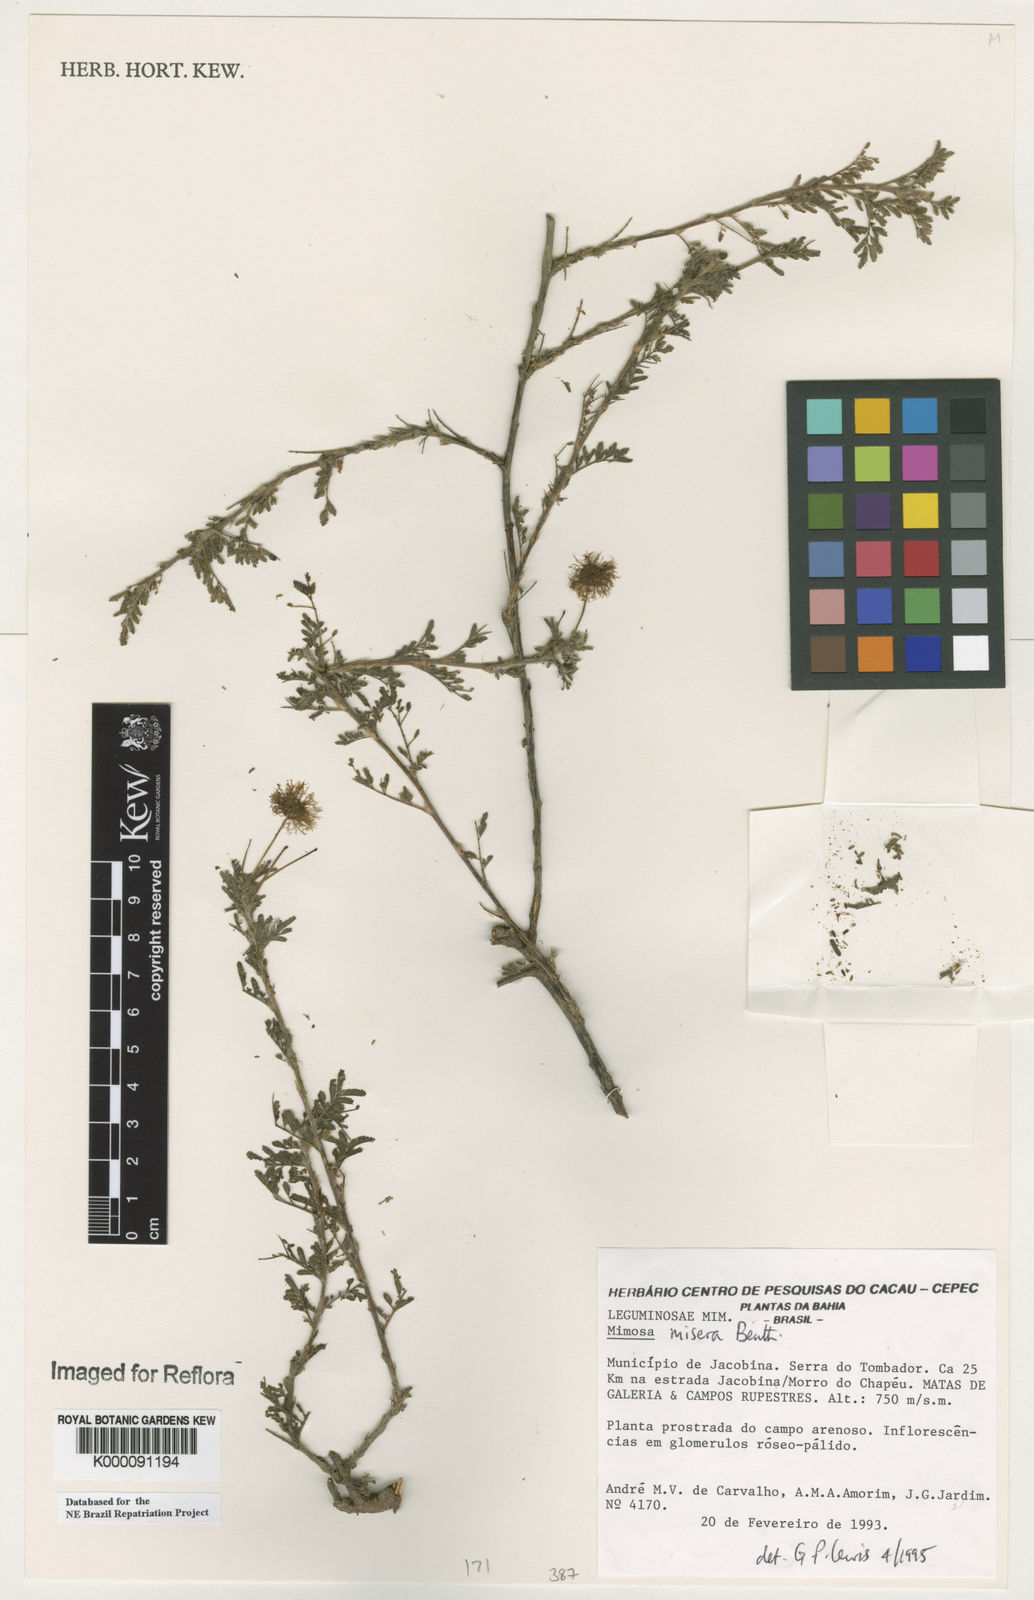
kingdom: Plantae
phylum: Tracheophyta
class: Magnoliopsida
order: Fabales
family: Fabaceae
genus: Mimosa
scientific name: Mimosa misera
